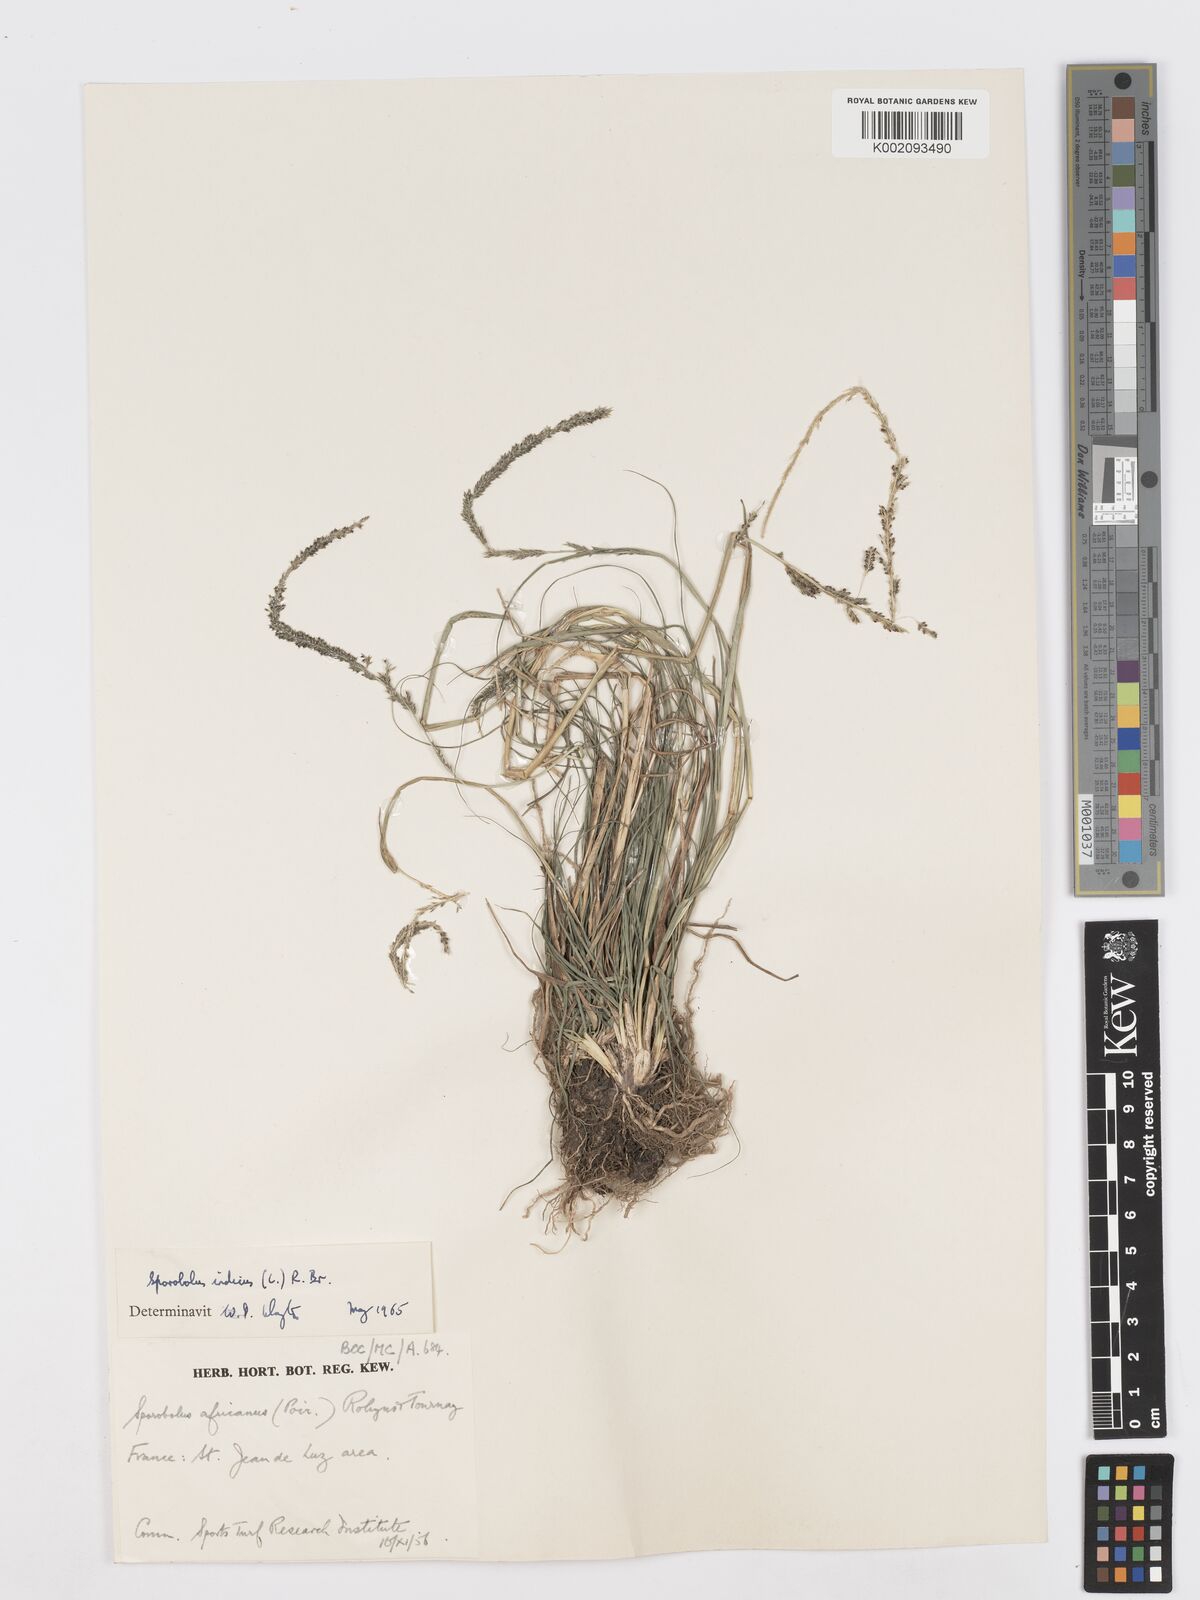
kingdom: Plantae
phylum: Tracheophyta
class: Liliopsida
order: Poales
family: Poaceae
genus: Sporobolus
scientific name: Sporobolus indicus
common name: Smut grass
